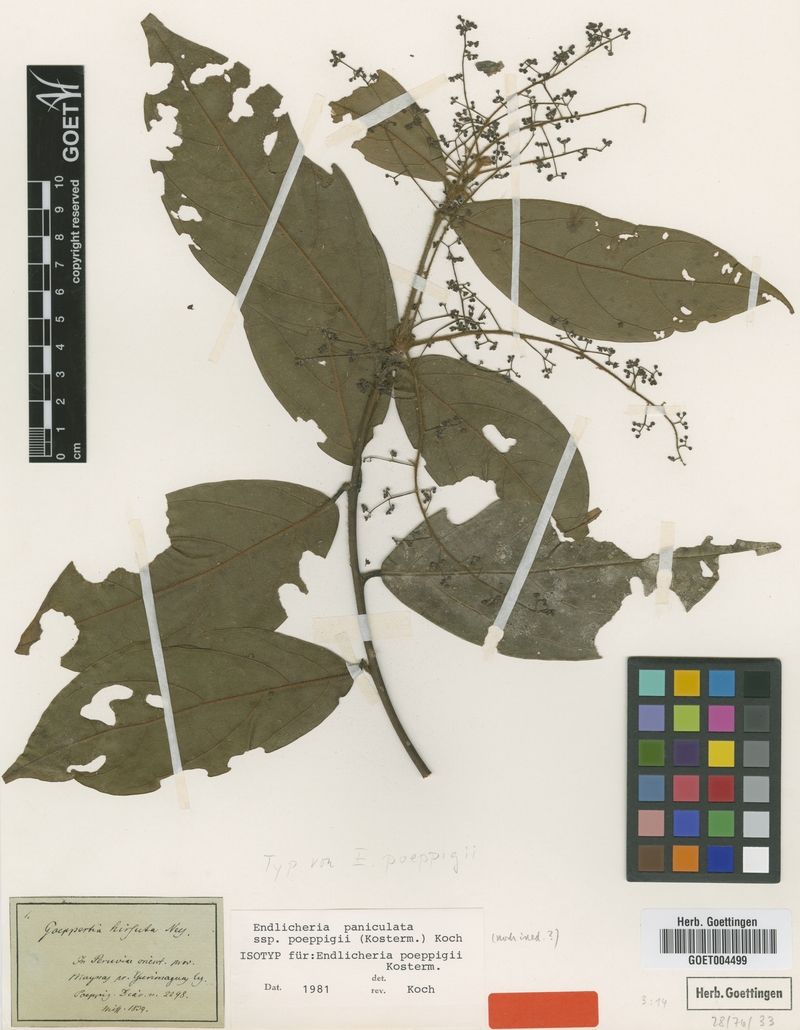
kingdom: Plantae
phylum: Tracheophyta
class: Magnoliopsida
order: Laurales
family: Lauraceae
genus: Endlicheria
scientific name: Endlicheria paniculata
